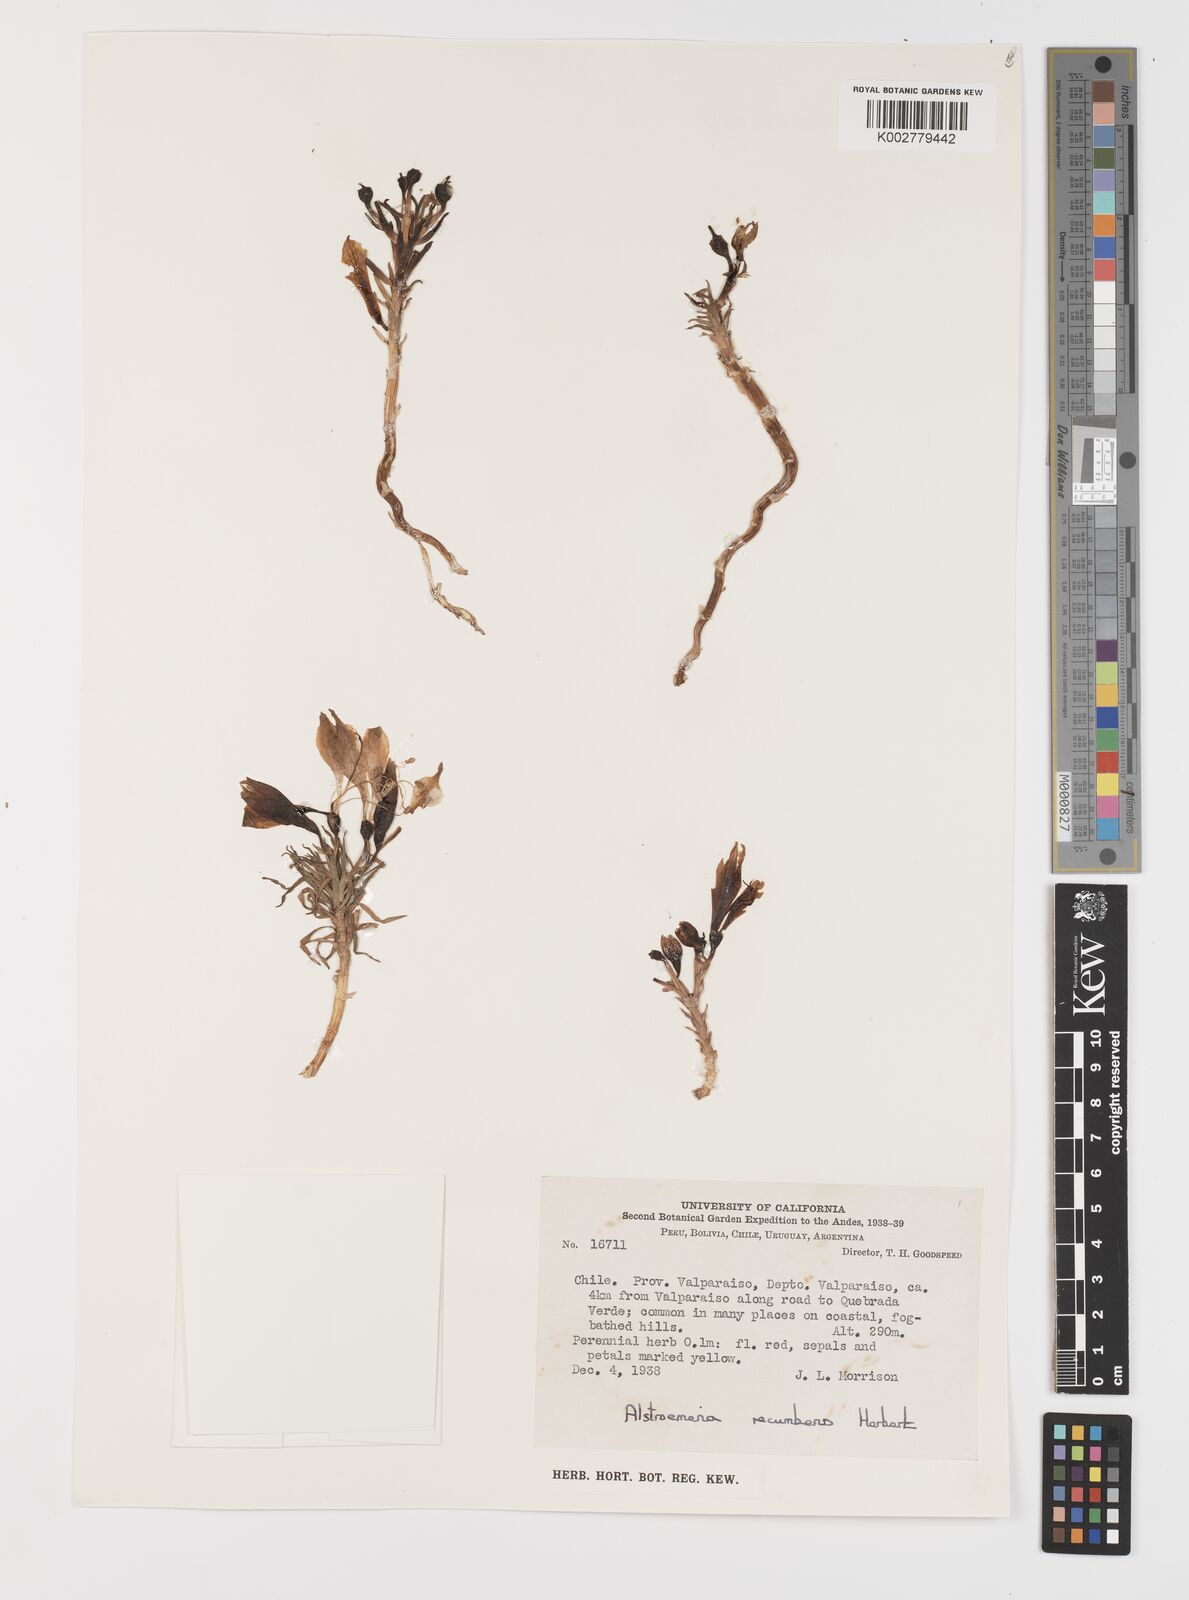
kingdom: Plantae
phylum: Tracheophyta
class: Liliopsida
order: Liliales
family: Alstroemeriaceae
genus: Alstroemeria
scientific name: Alstroemeria recumbens
